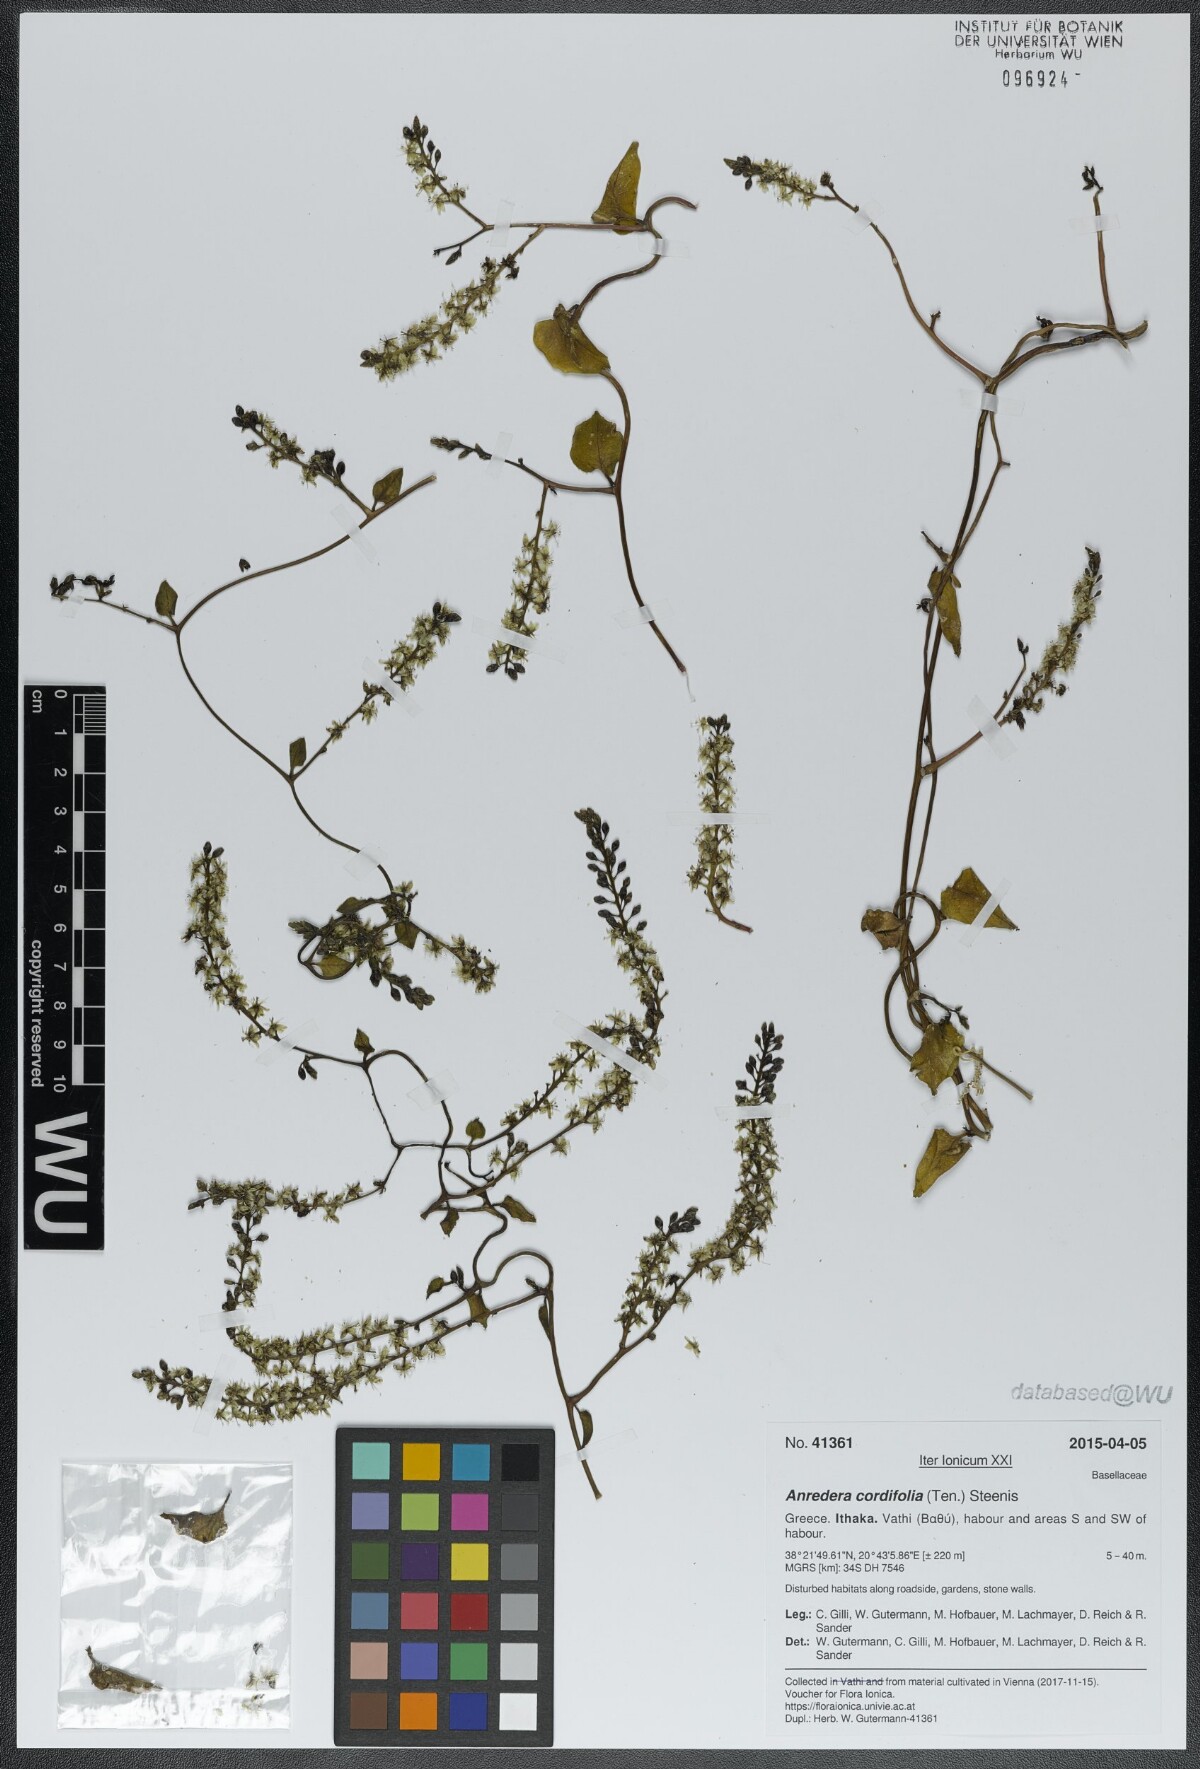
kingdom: Plantae
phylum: Tracheophyta
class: Magnoliopsida
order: Caryophyllales
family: Basellaceae
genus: Anredera
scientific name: Anredera cordifolia
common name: Heartleaf madeiravine
